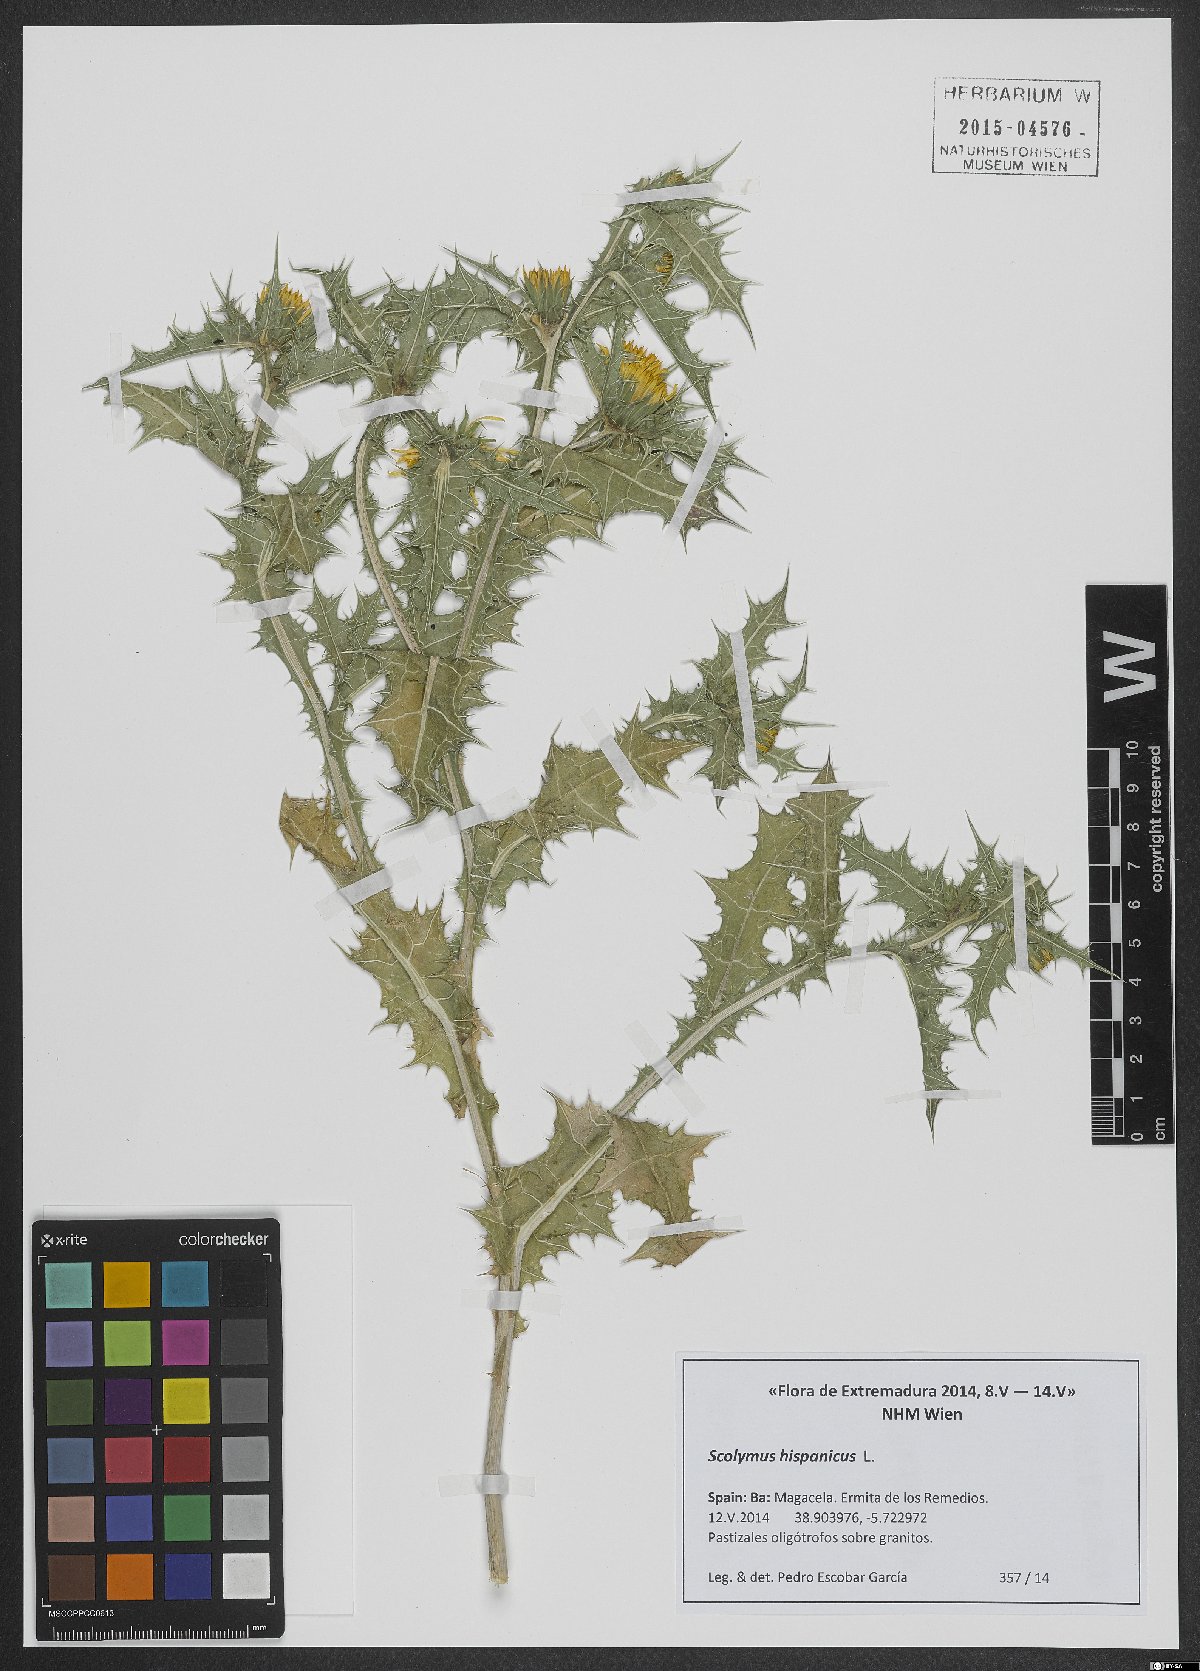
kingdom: Plantae
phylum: Tracheophyta
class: Magnoliopsida
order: Asterales
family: Asteraceae
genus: Scolymus
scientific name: Scolymus hispanicus
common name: Golden thistle
